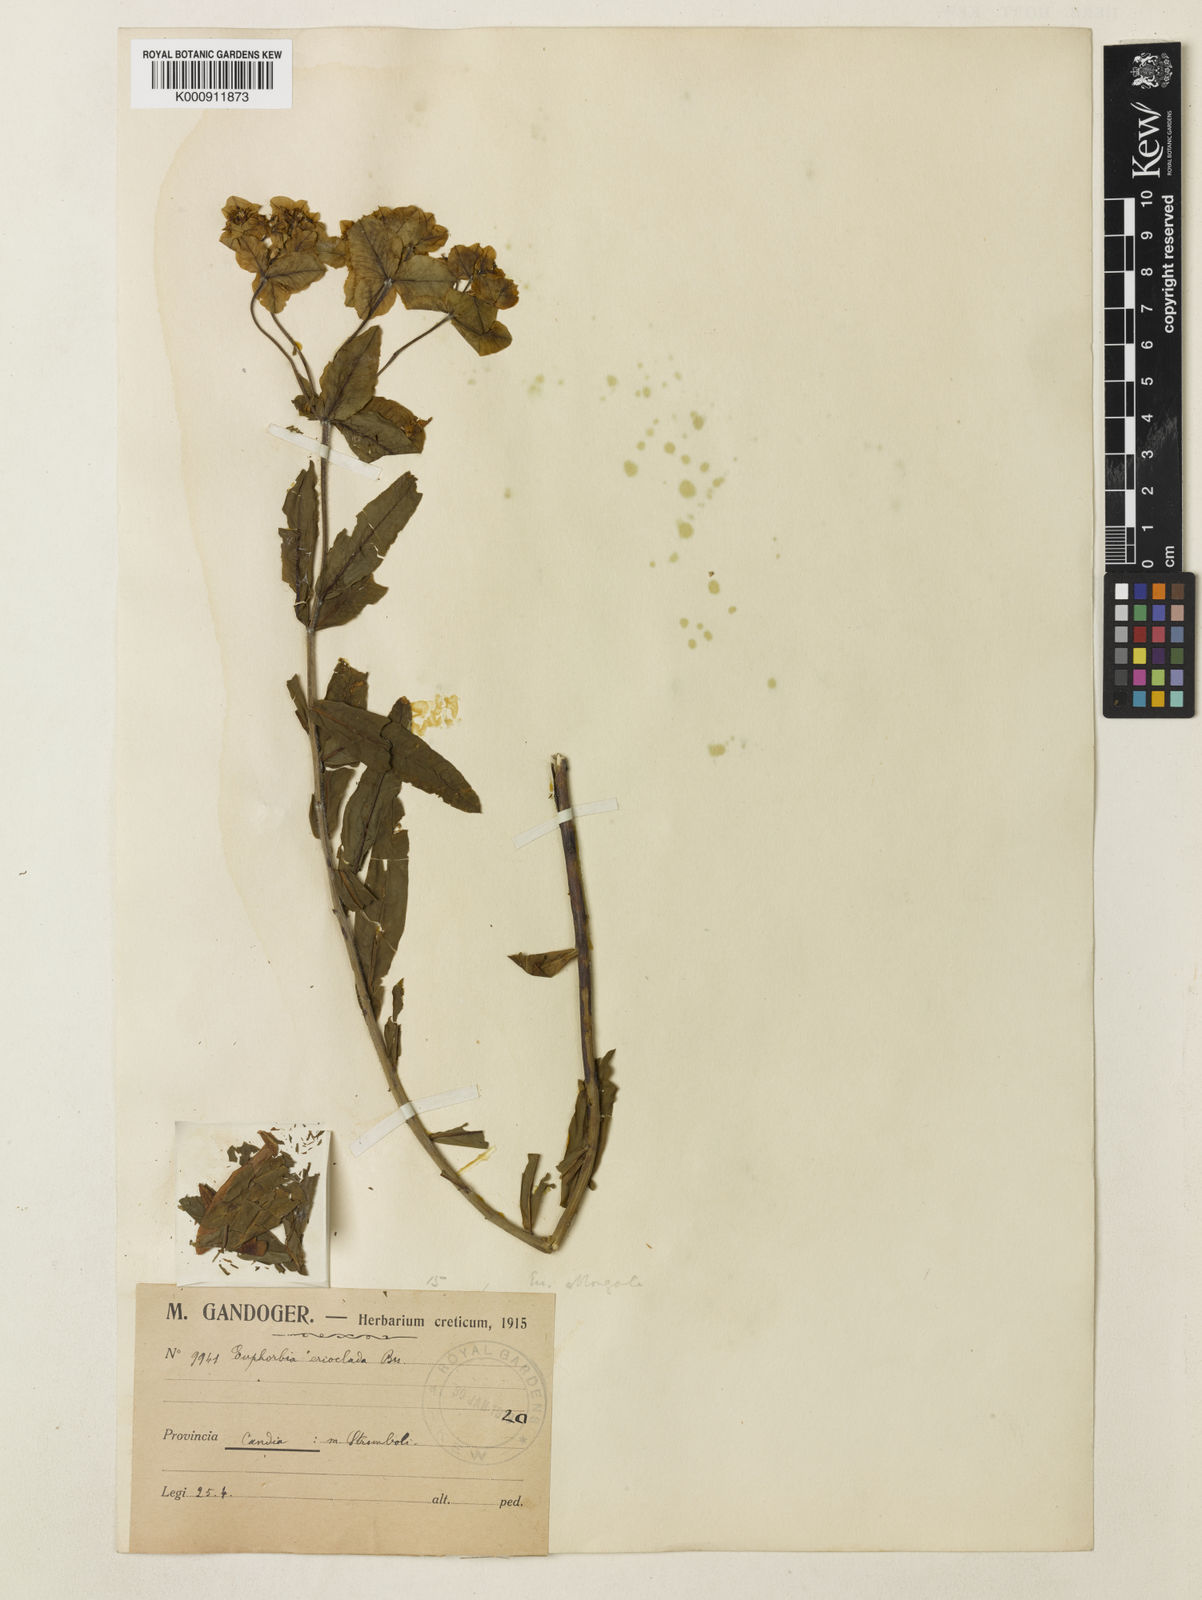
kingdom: Plantae
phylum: Tracheophyta
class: Magnoliopsida
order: Malpighiales
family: Euphorbiaceae
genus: Euphorbia
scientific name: Euphorbia oblongata
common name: Balkan spurge
